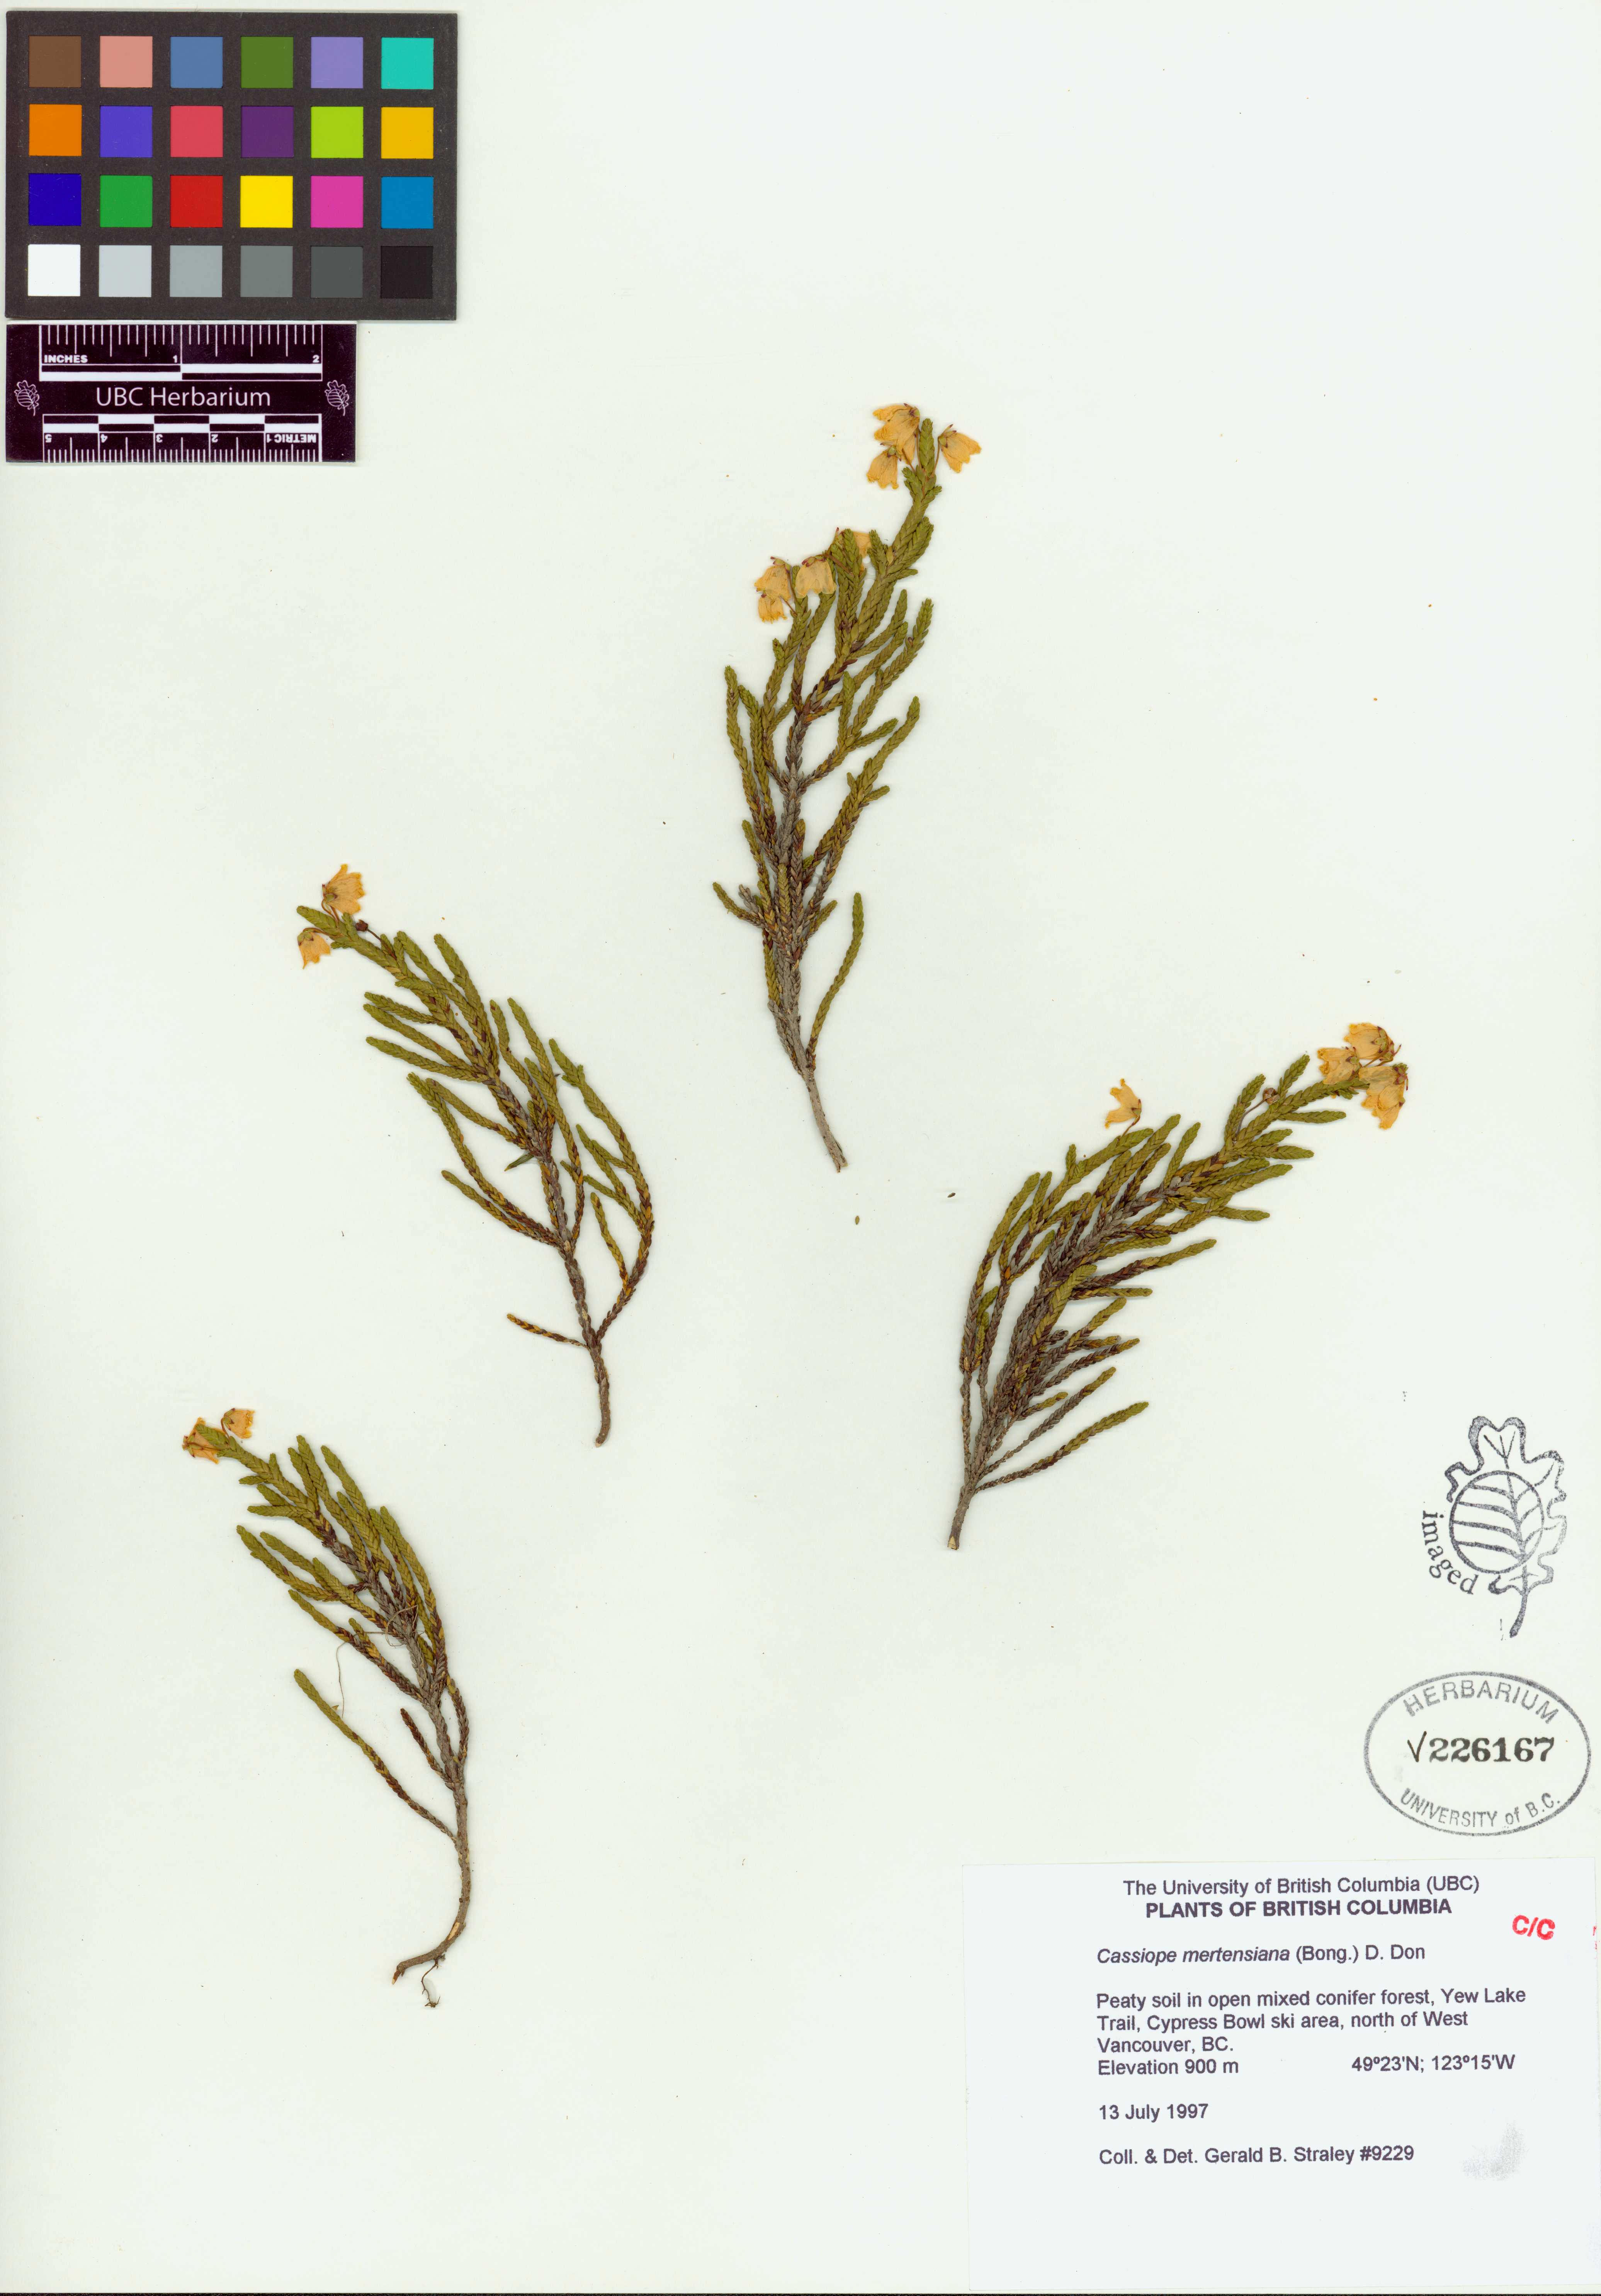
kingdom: Plantae
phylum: Tracheophyta
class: Magnoliopsida
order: Ericales
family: Ericaceae
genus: Cassiope
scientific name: Cassiope mertensiana
